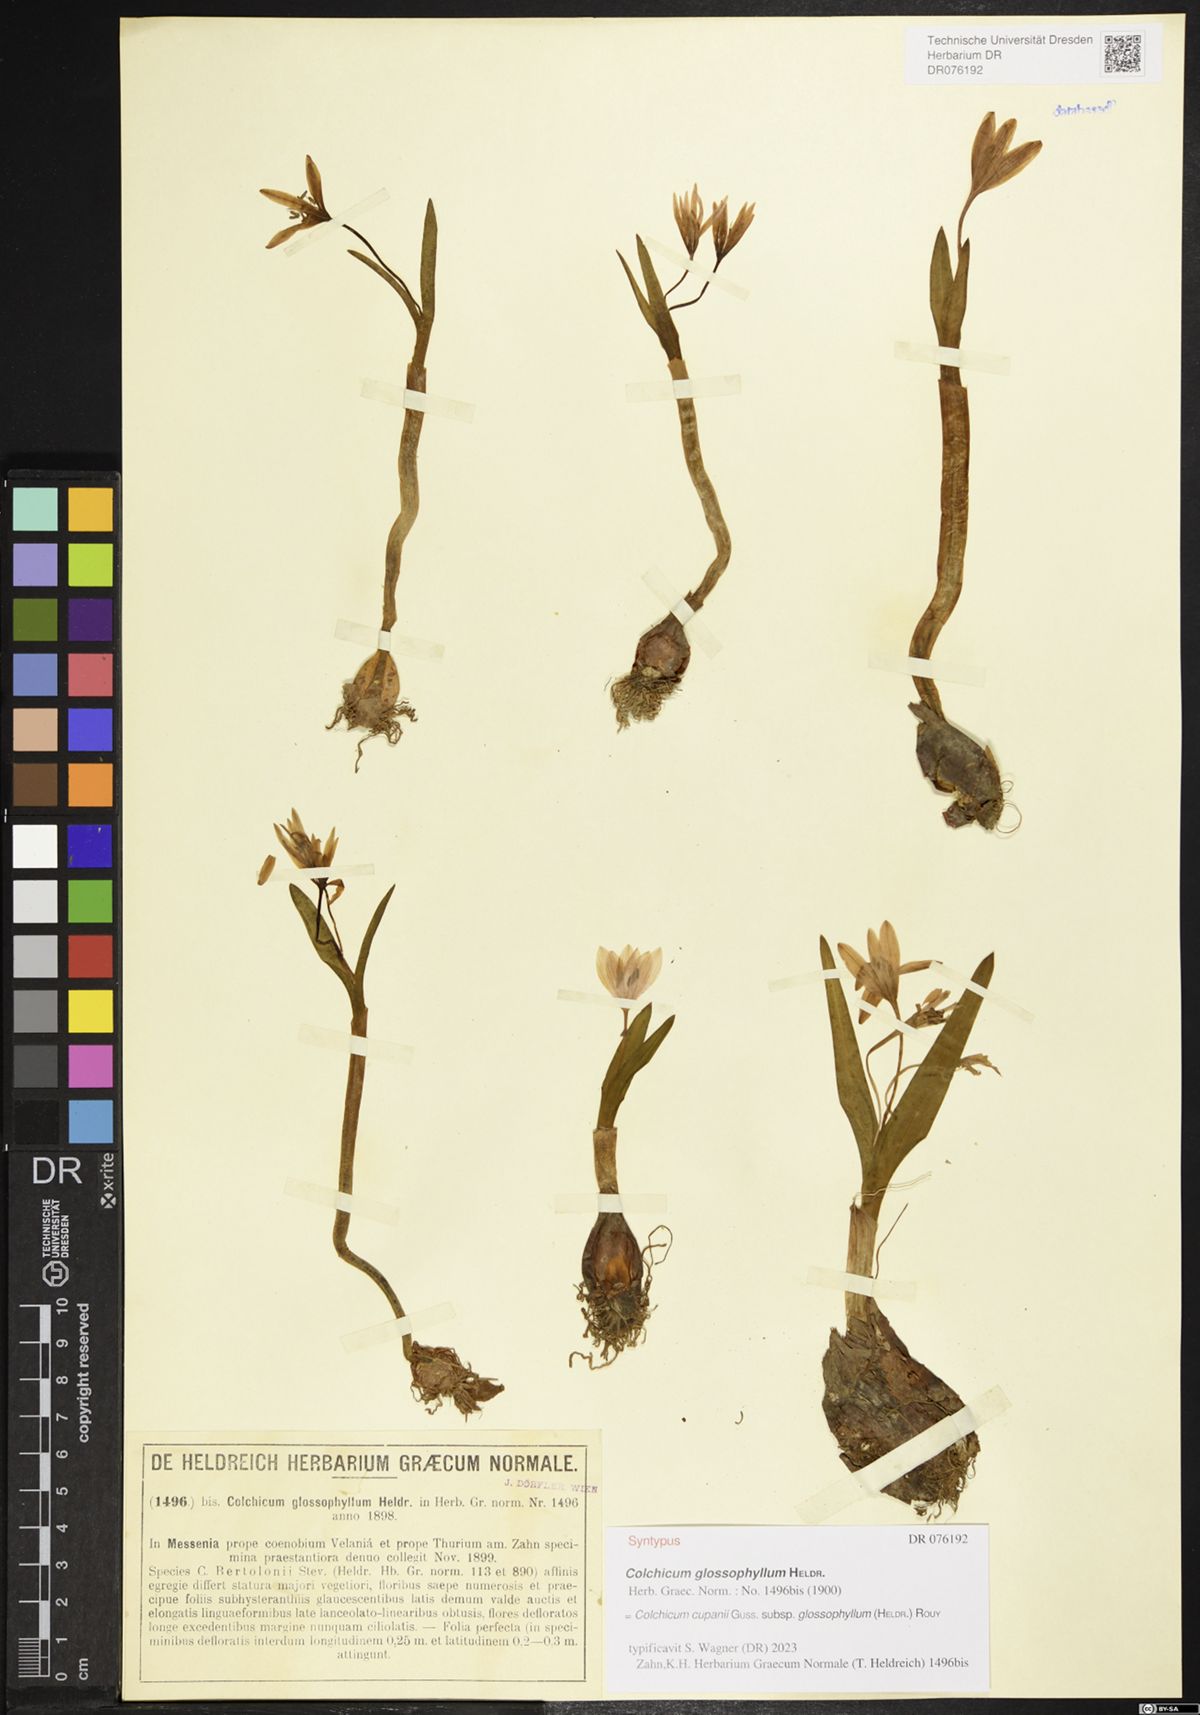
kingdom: Plantae
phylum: Tracheophyta
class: Liliopsida
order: Liliales
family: Colchicaceae
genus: Colchicum
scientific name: Colchicum cupanii
